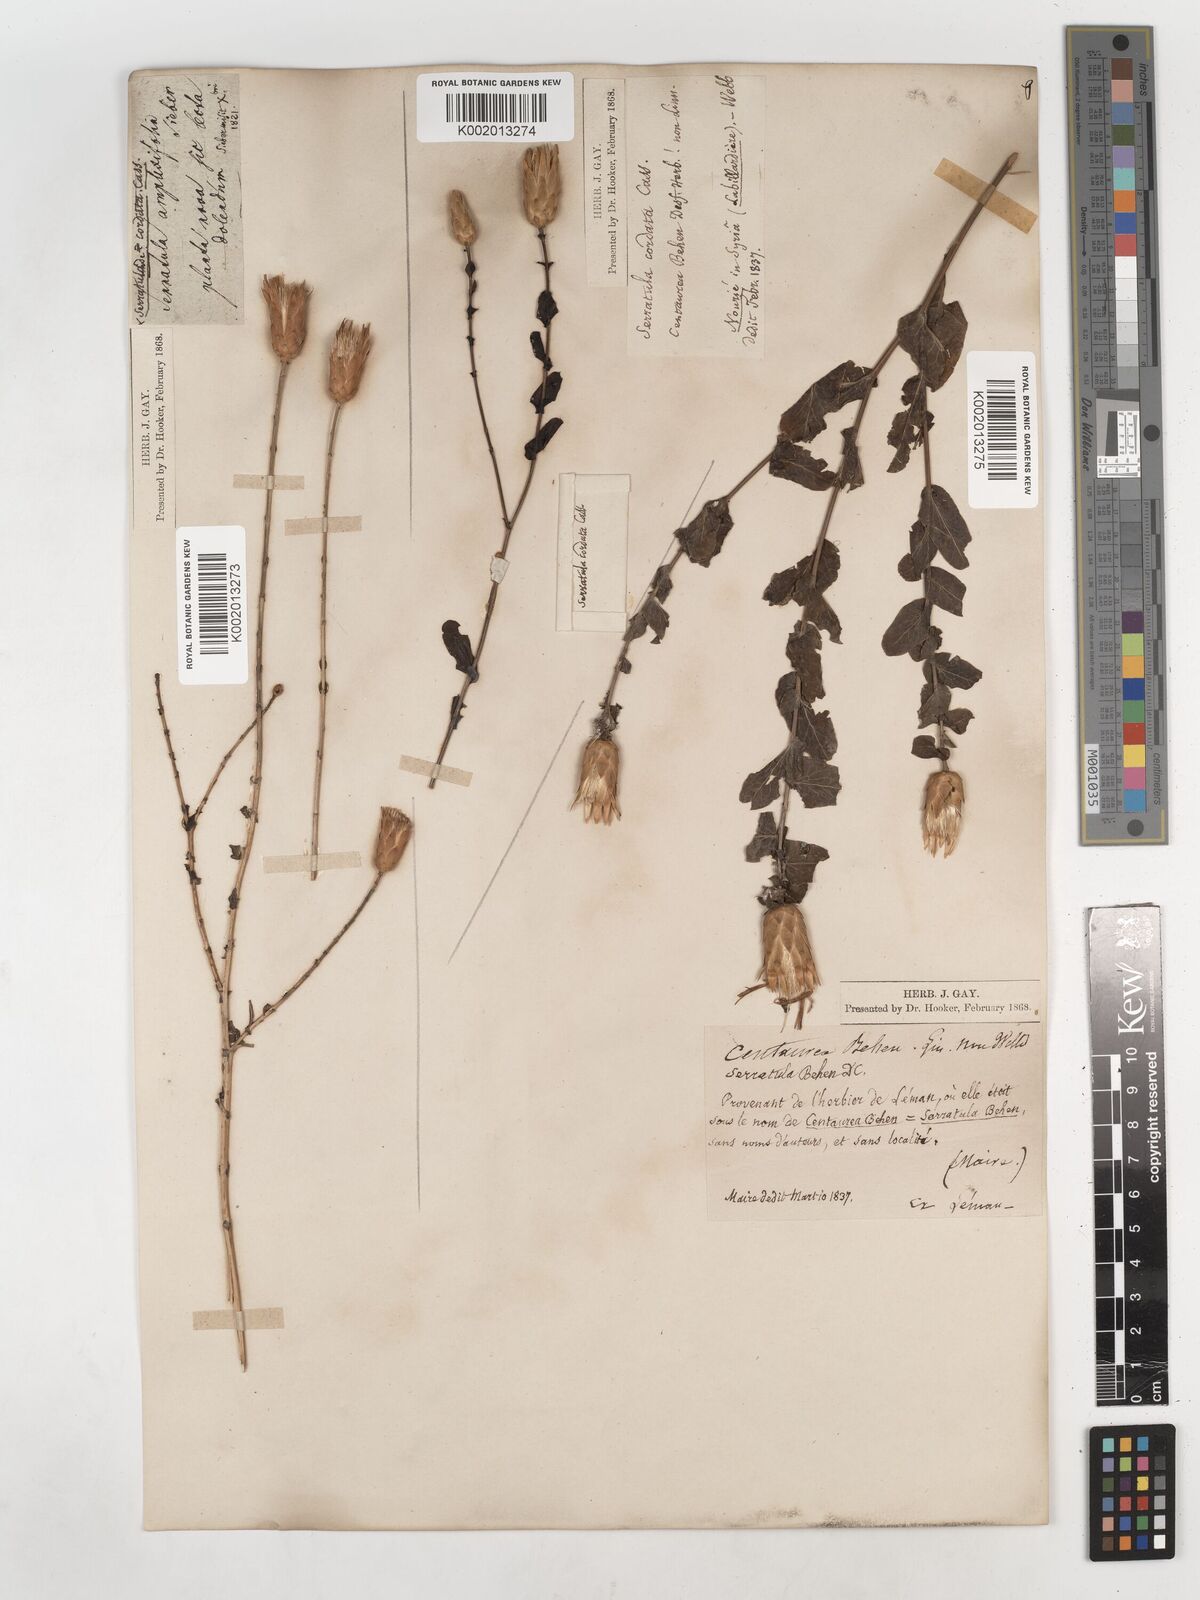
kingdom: Plantae
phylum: Tracheophyta
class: Magnoliopsida
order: Asterales
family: Asteraceae
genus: Klasea
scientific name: Klasea cerinthifolia
